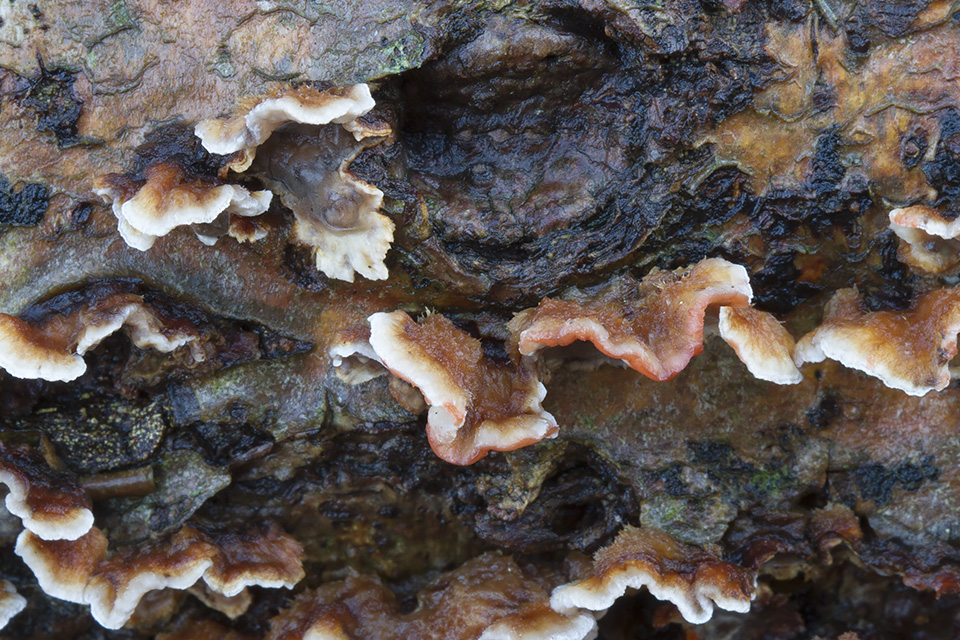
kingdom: Fungi
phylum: Basidiomycota
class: Agaricomycetes
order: Russulales
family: Stereaceae
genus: Stereum
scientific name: Stereum gausapatum
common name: tynd lædersvamp
